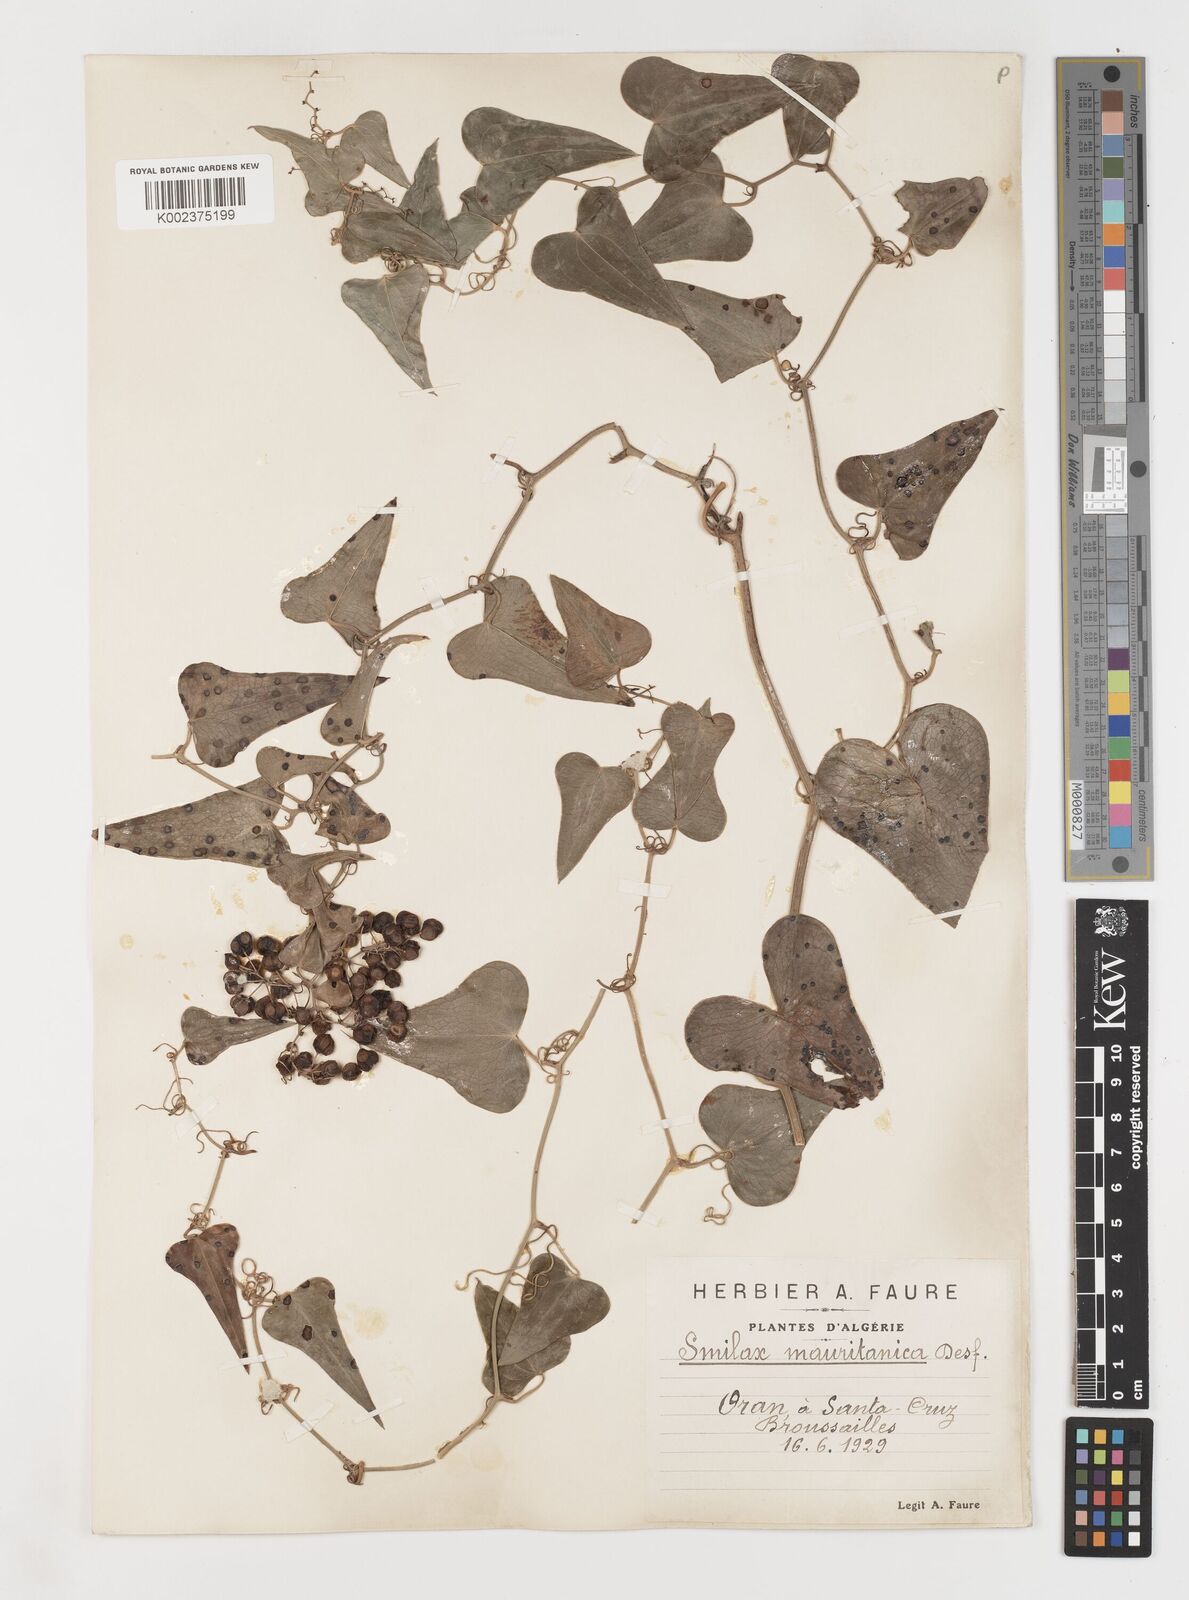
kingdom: Plantae
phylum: Tracheophyta
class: Liliopsida
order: Liliales
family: Smilacaceae
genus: Smilax
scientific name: Smilax aspera
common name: Common smilax
